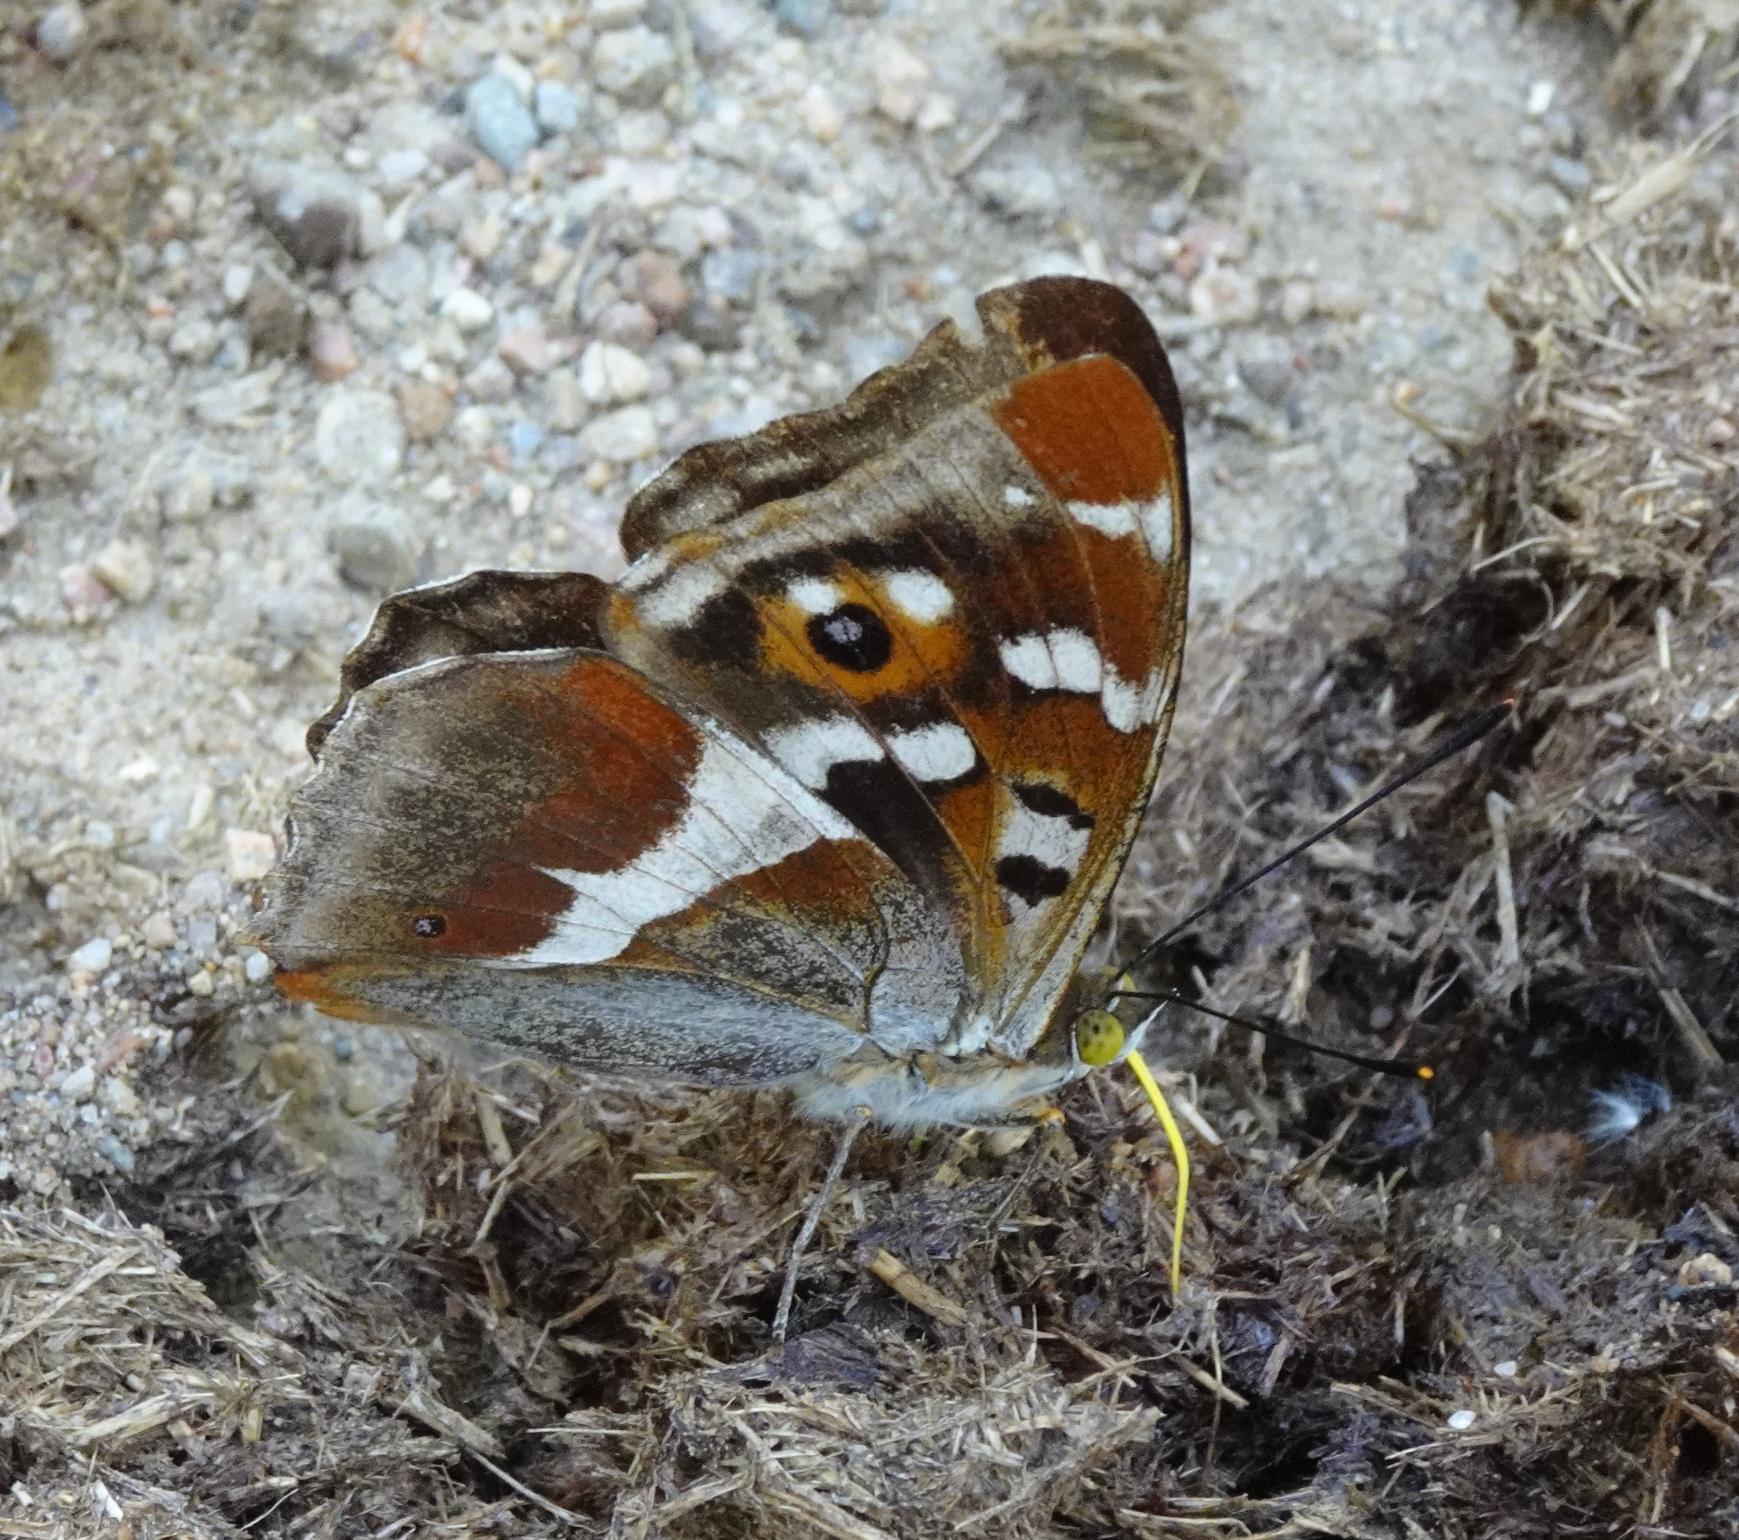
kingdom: Animalia
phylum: Arthropoda
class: Insecta
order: Lepidoptera
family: Nymphalidae
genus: Apatura
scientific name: Apatura iris
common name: Iris
